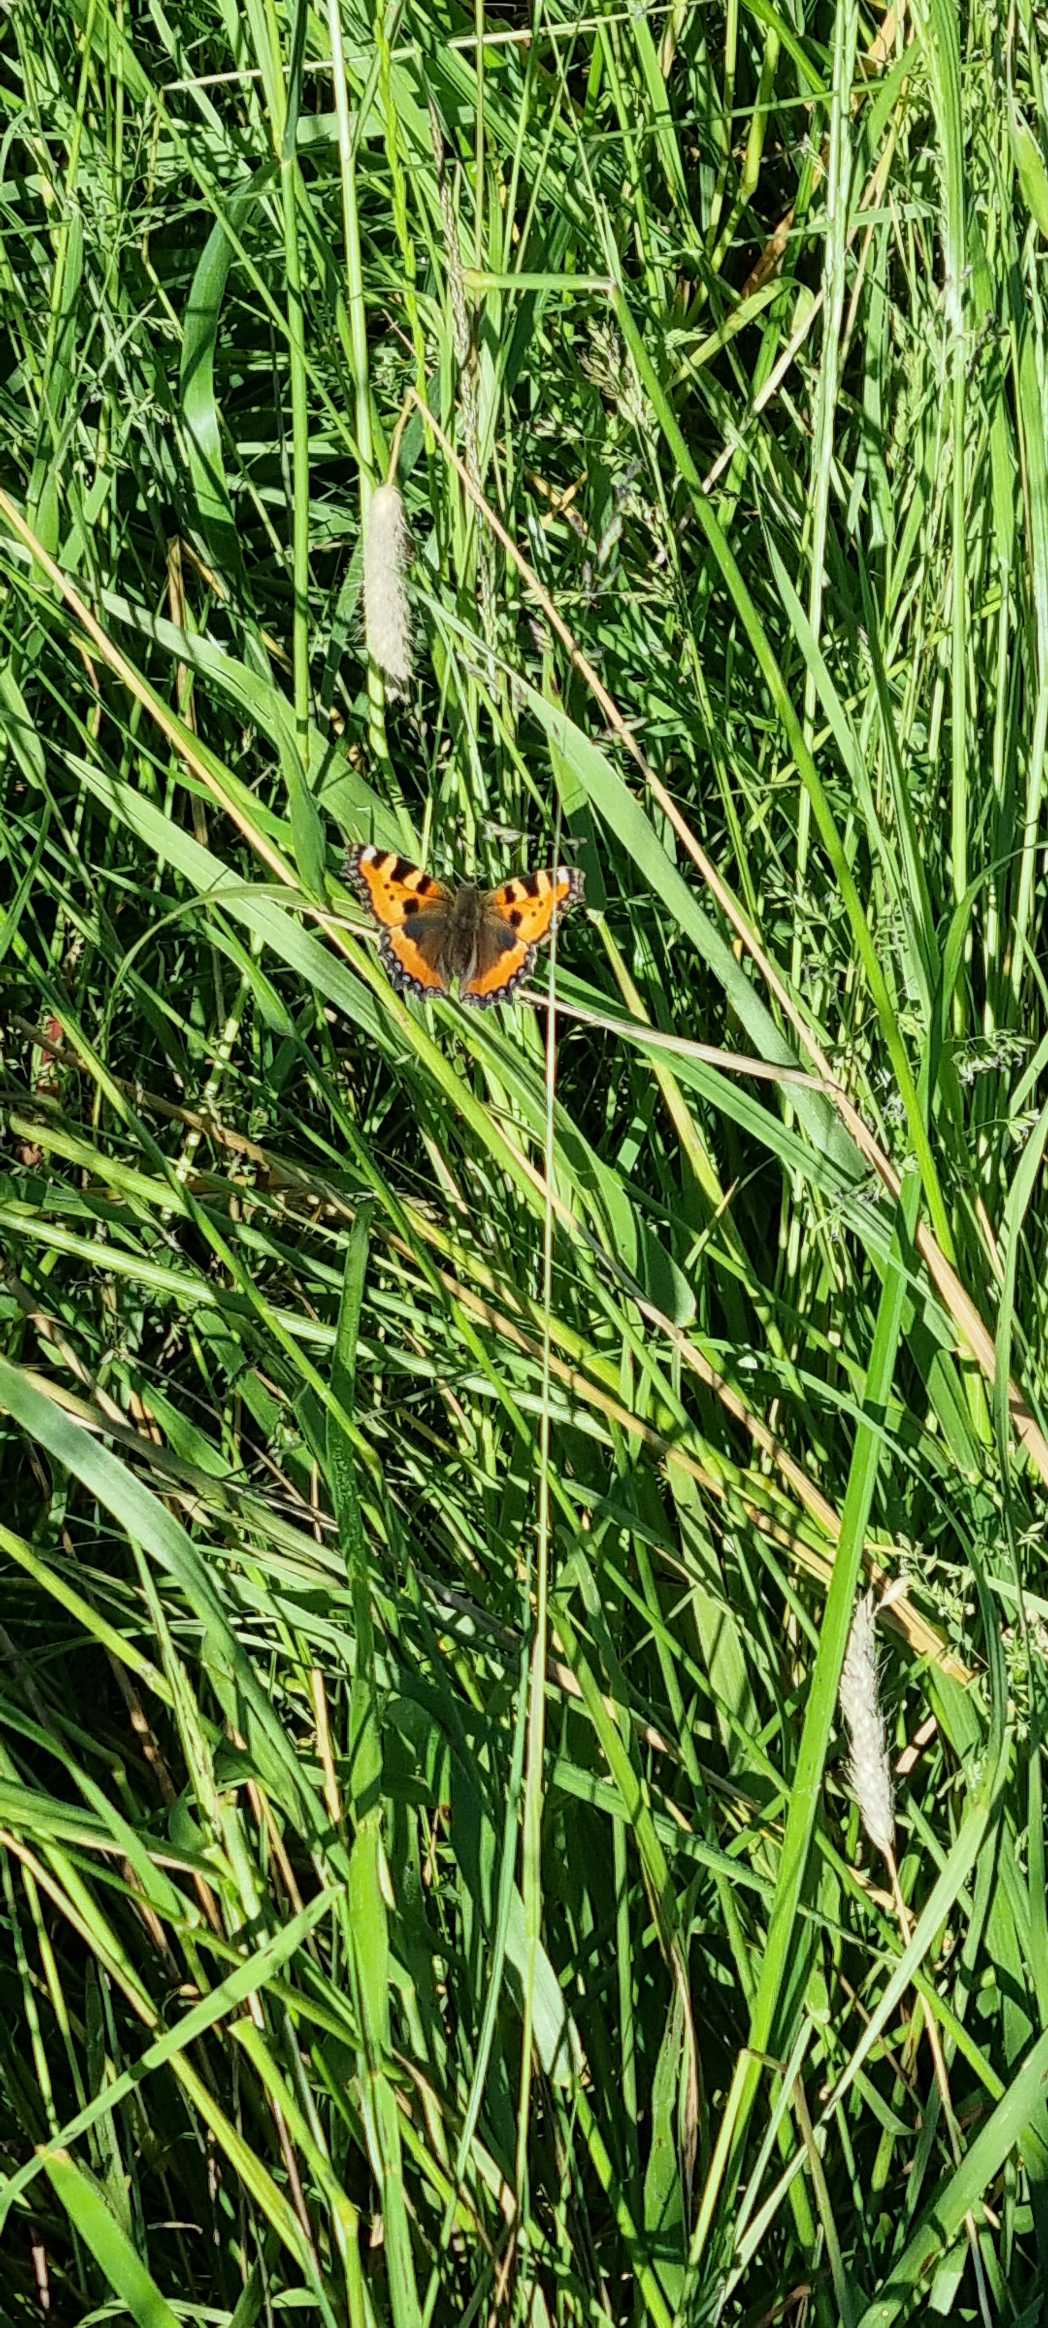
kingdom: Animalia
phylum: Arthropoda
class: Insecta
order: Lepidoptera
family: Nymphalidae
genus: Aglais
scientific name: Aglais urticae
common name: Nældens takvinge
